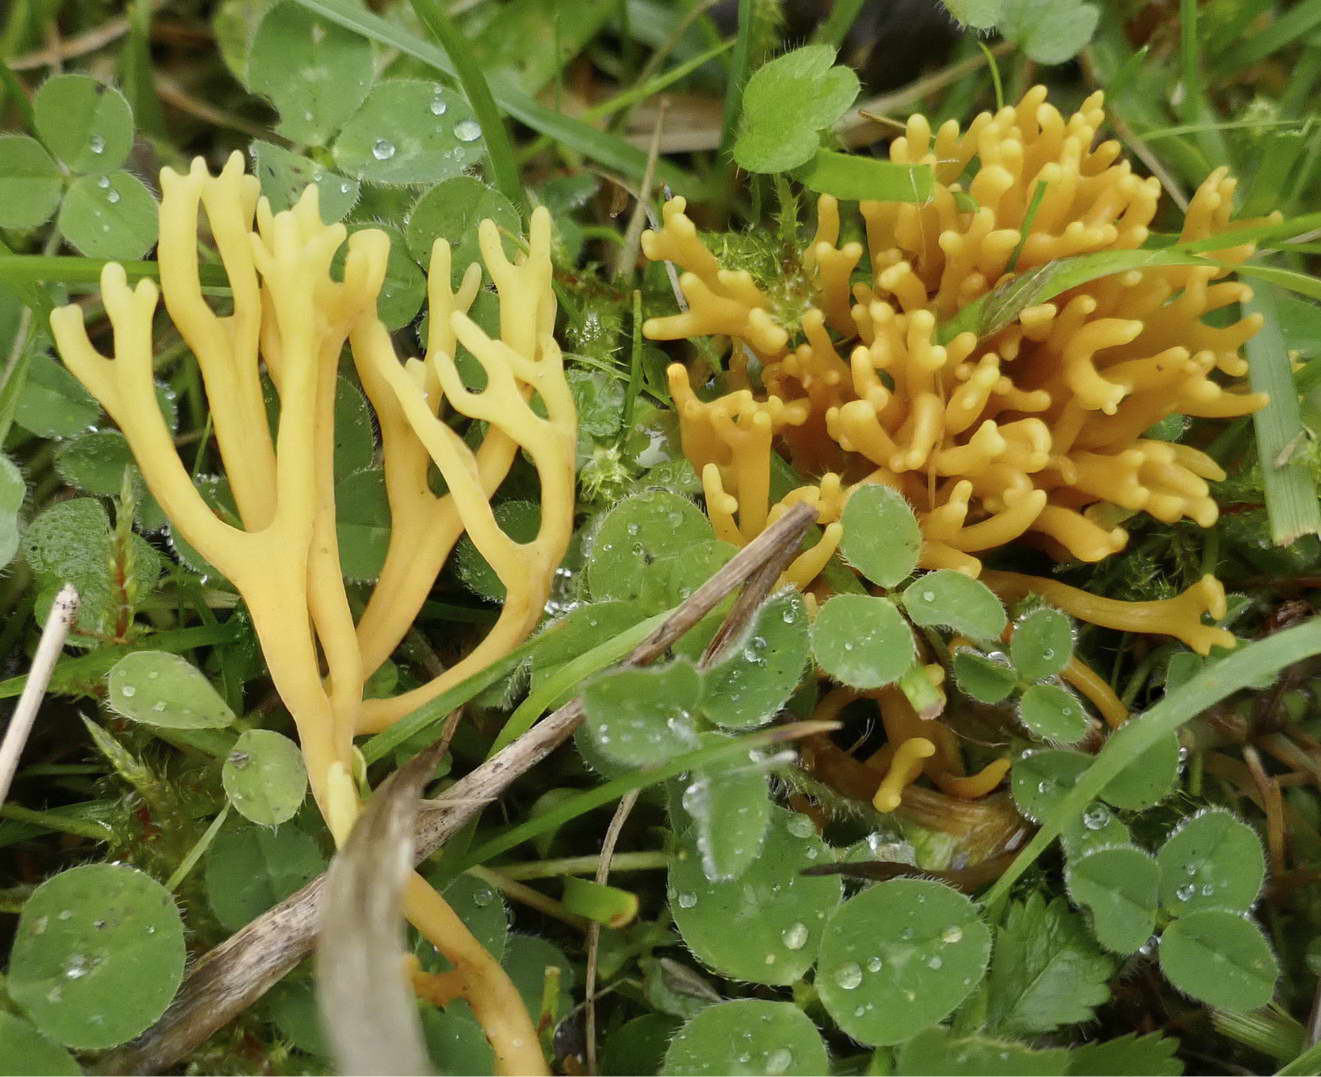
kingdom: Fungi
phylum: Basidiomycota
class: Agaricomycetes
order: Agaricales
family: Clavariaceae
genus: Clavulinopsis
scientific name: Clavulinopsis corniculata
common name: eng-køllesvamp
